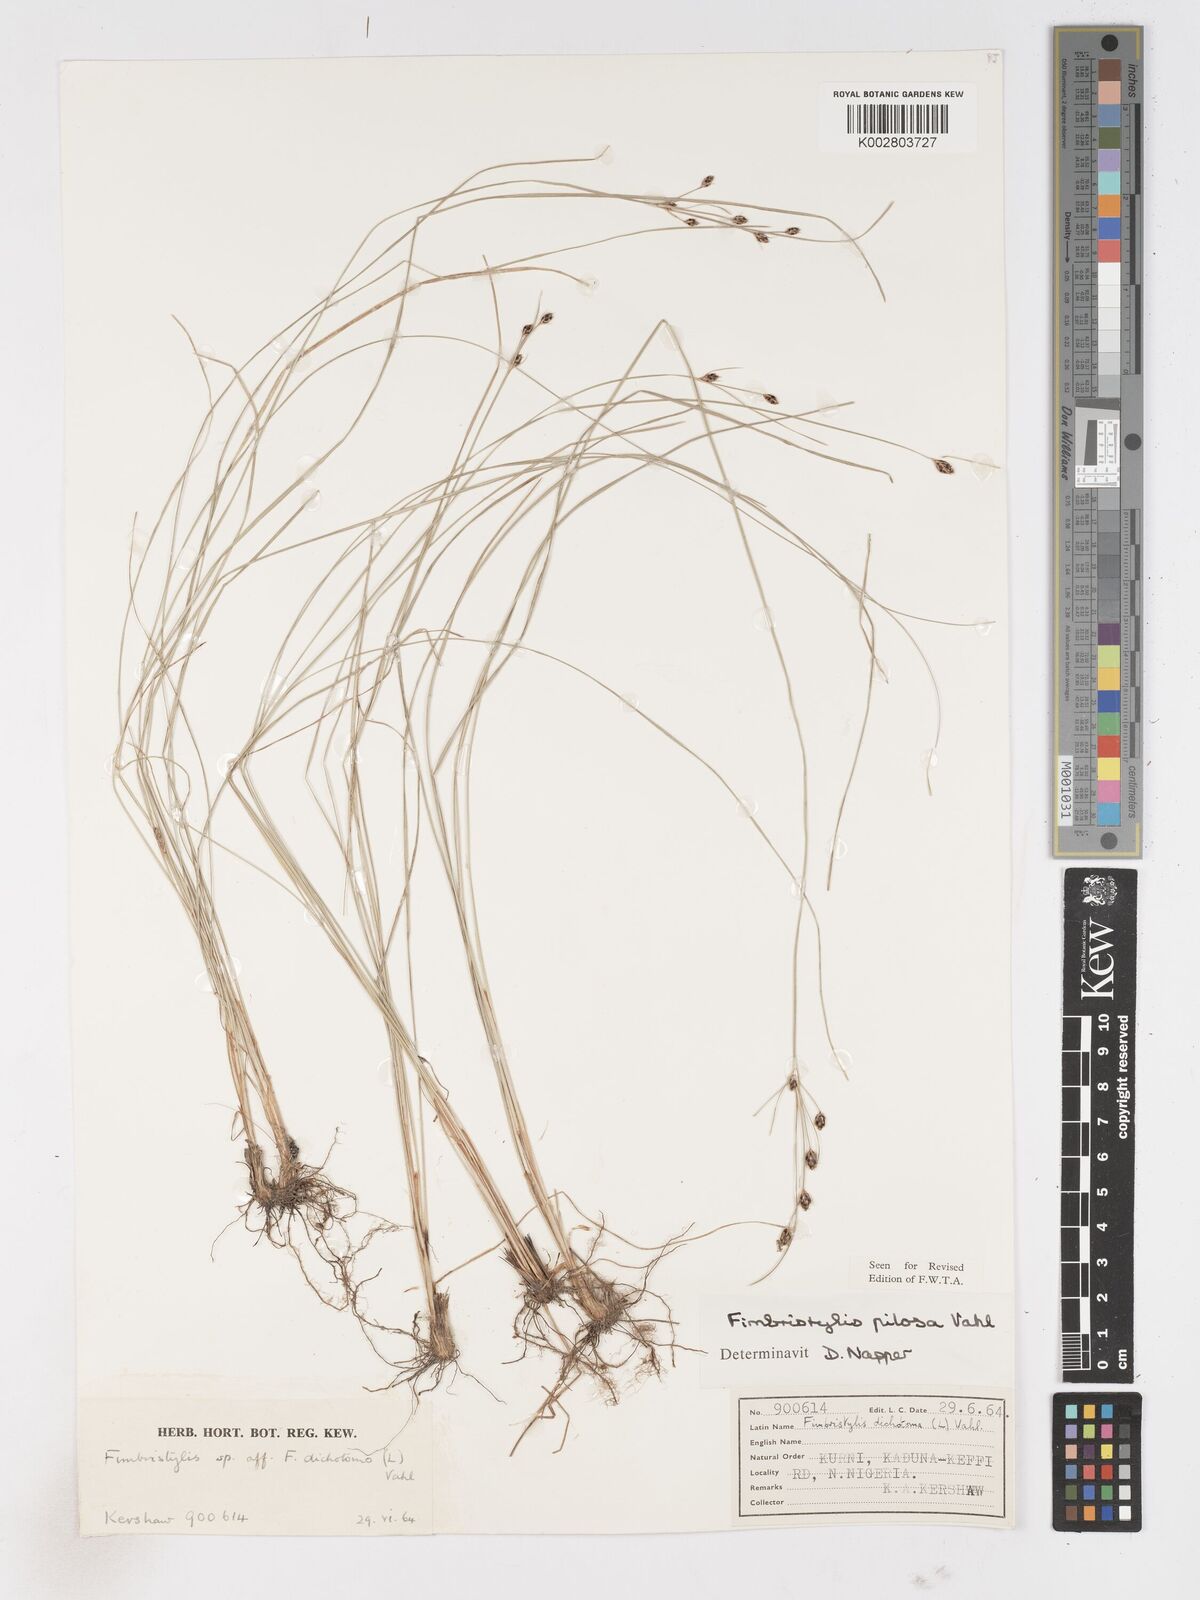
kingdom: Plantae
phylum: Tracheophyta
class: Liliopsida
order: Poales
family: Cyperaceae
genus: Fimbristylis
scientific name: Fimbristylis pilosa
